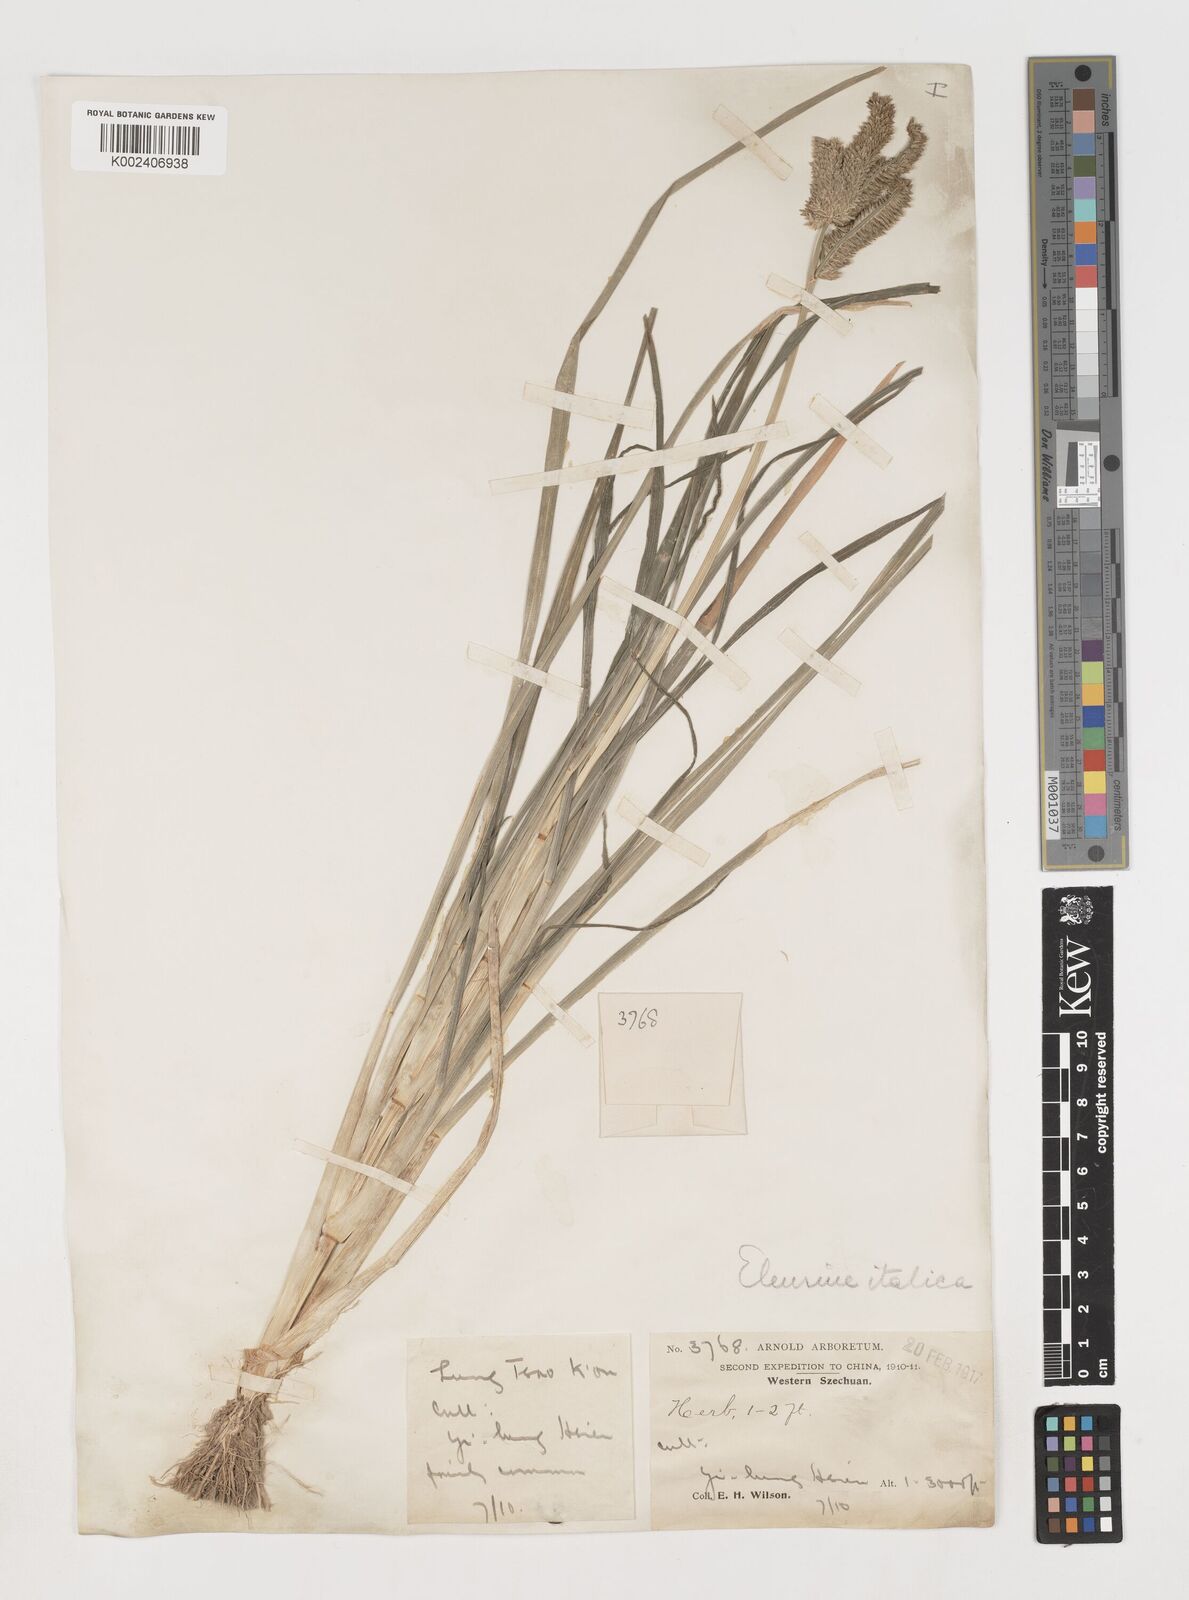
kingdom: Plantae
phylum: Tracheophyta
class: Liliopsida
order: Poales
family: Poaceae
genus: Eleusine
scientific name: Eleusine coracana
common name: Finger millet
